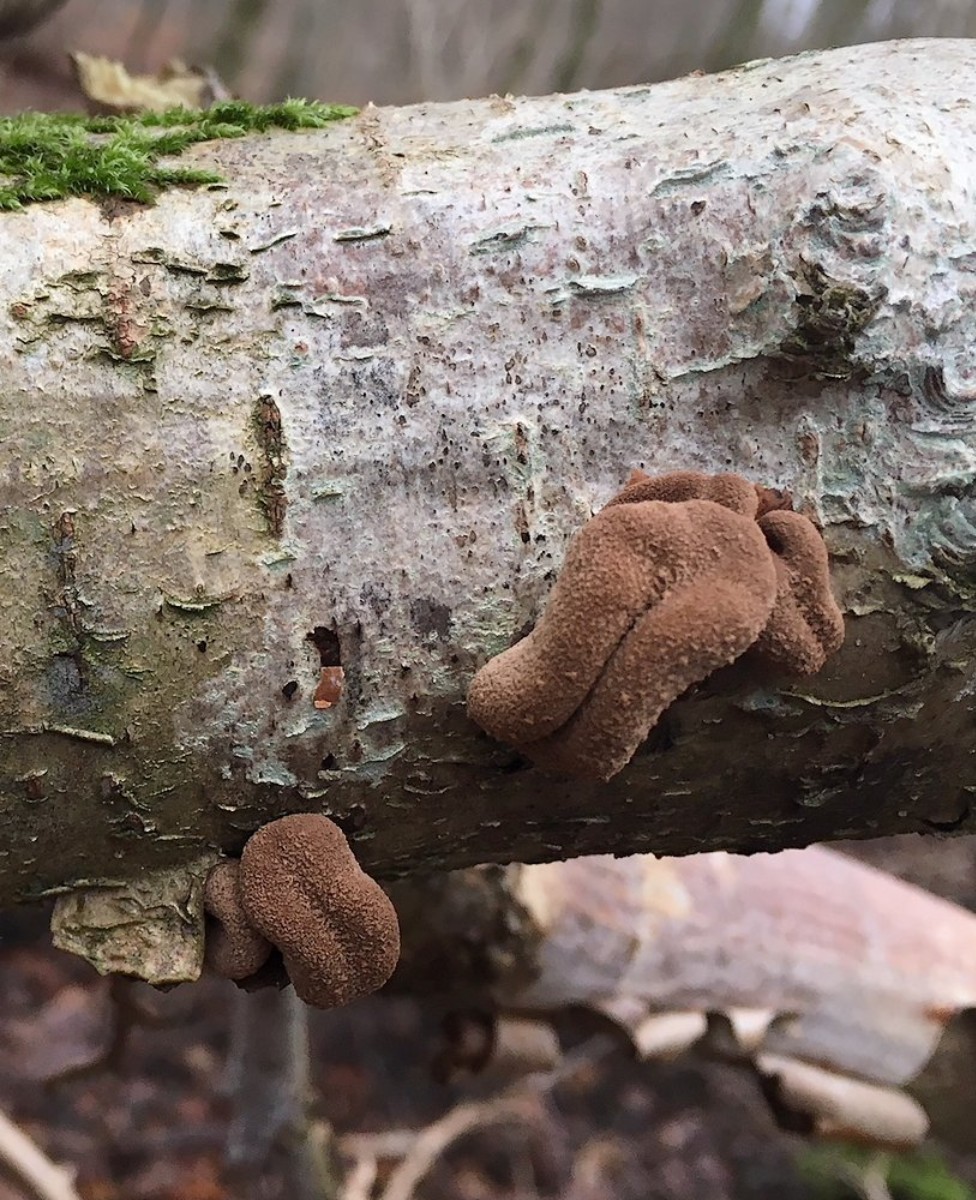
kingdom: Fungi
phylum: Ascomycota
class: Leotiomycetes
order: Helotiales
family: Cenangiaceae
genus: Encoelia
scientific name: Encoelia furfuracea
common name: hassel-læderskive
